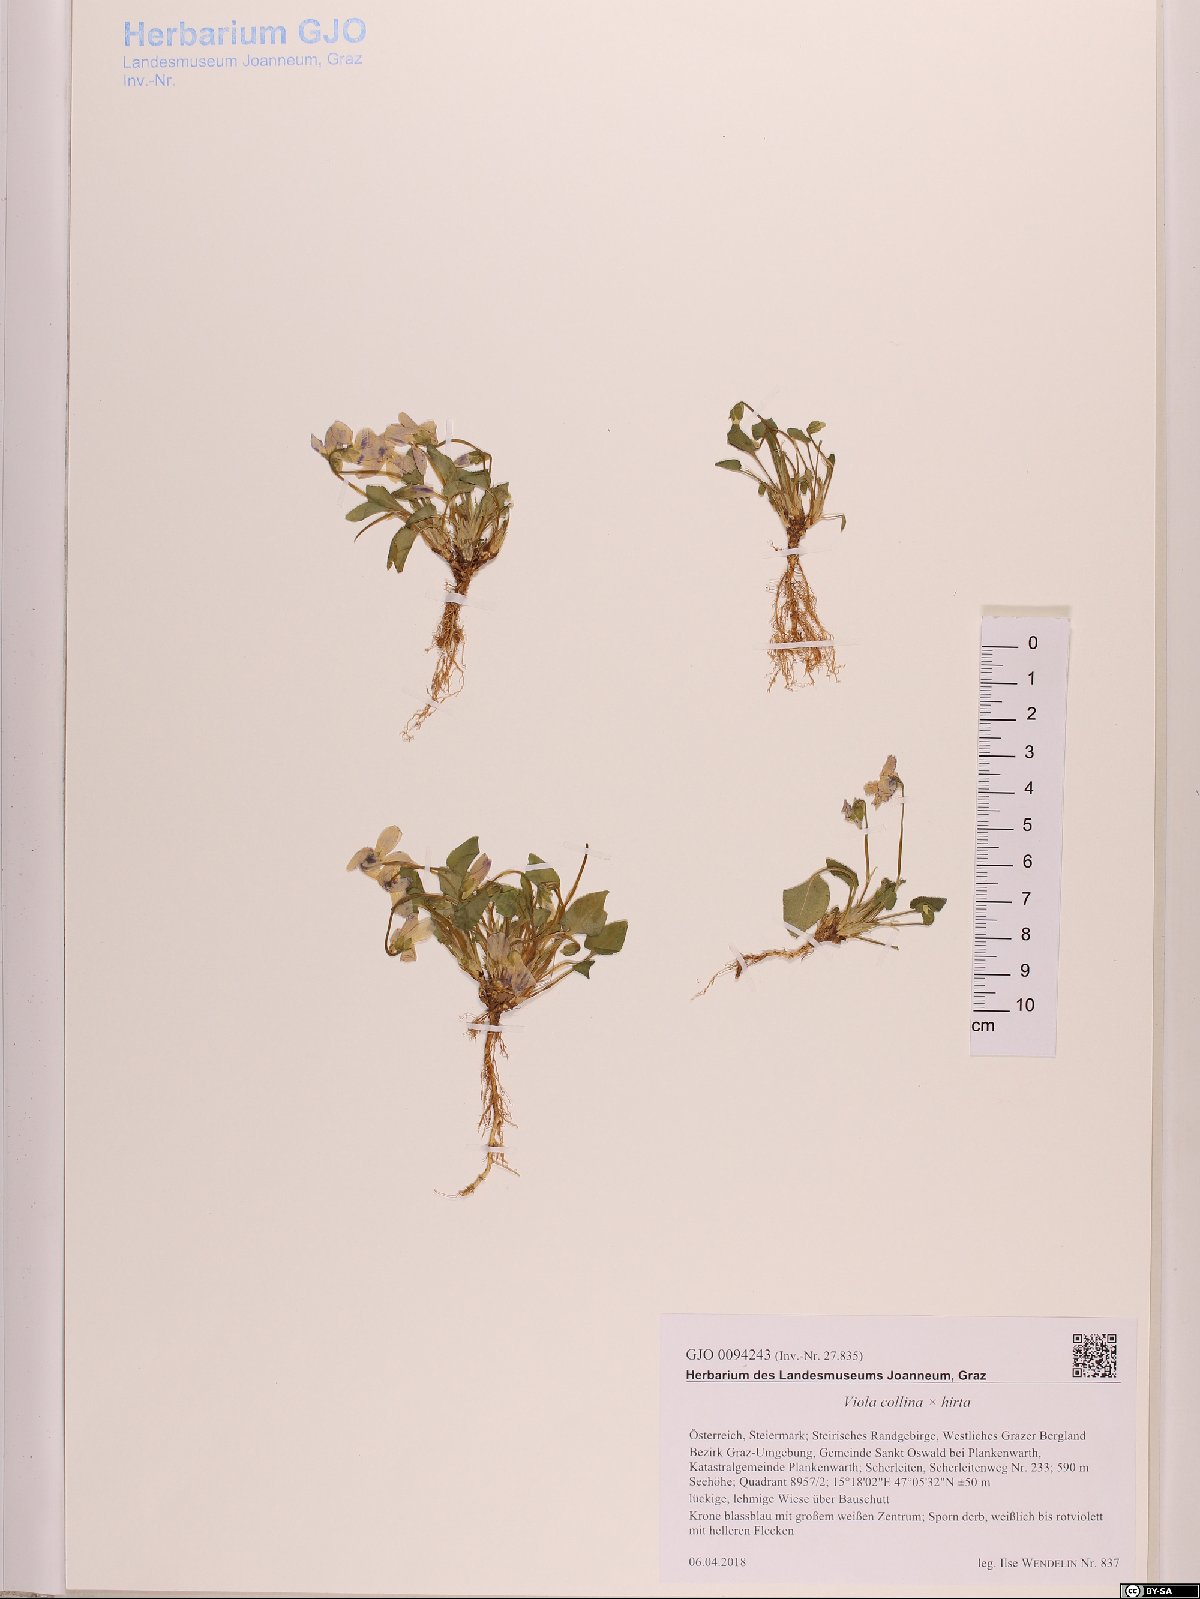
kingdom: Plantae
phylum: Tracheophyta
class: Magnoliopsida
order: Malpighiales
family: Violaceae
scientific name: Violaceae
